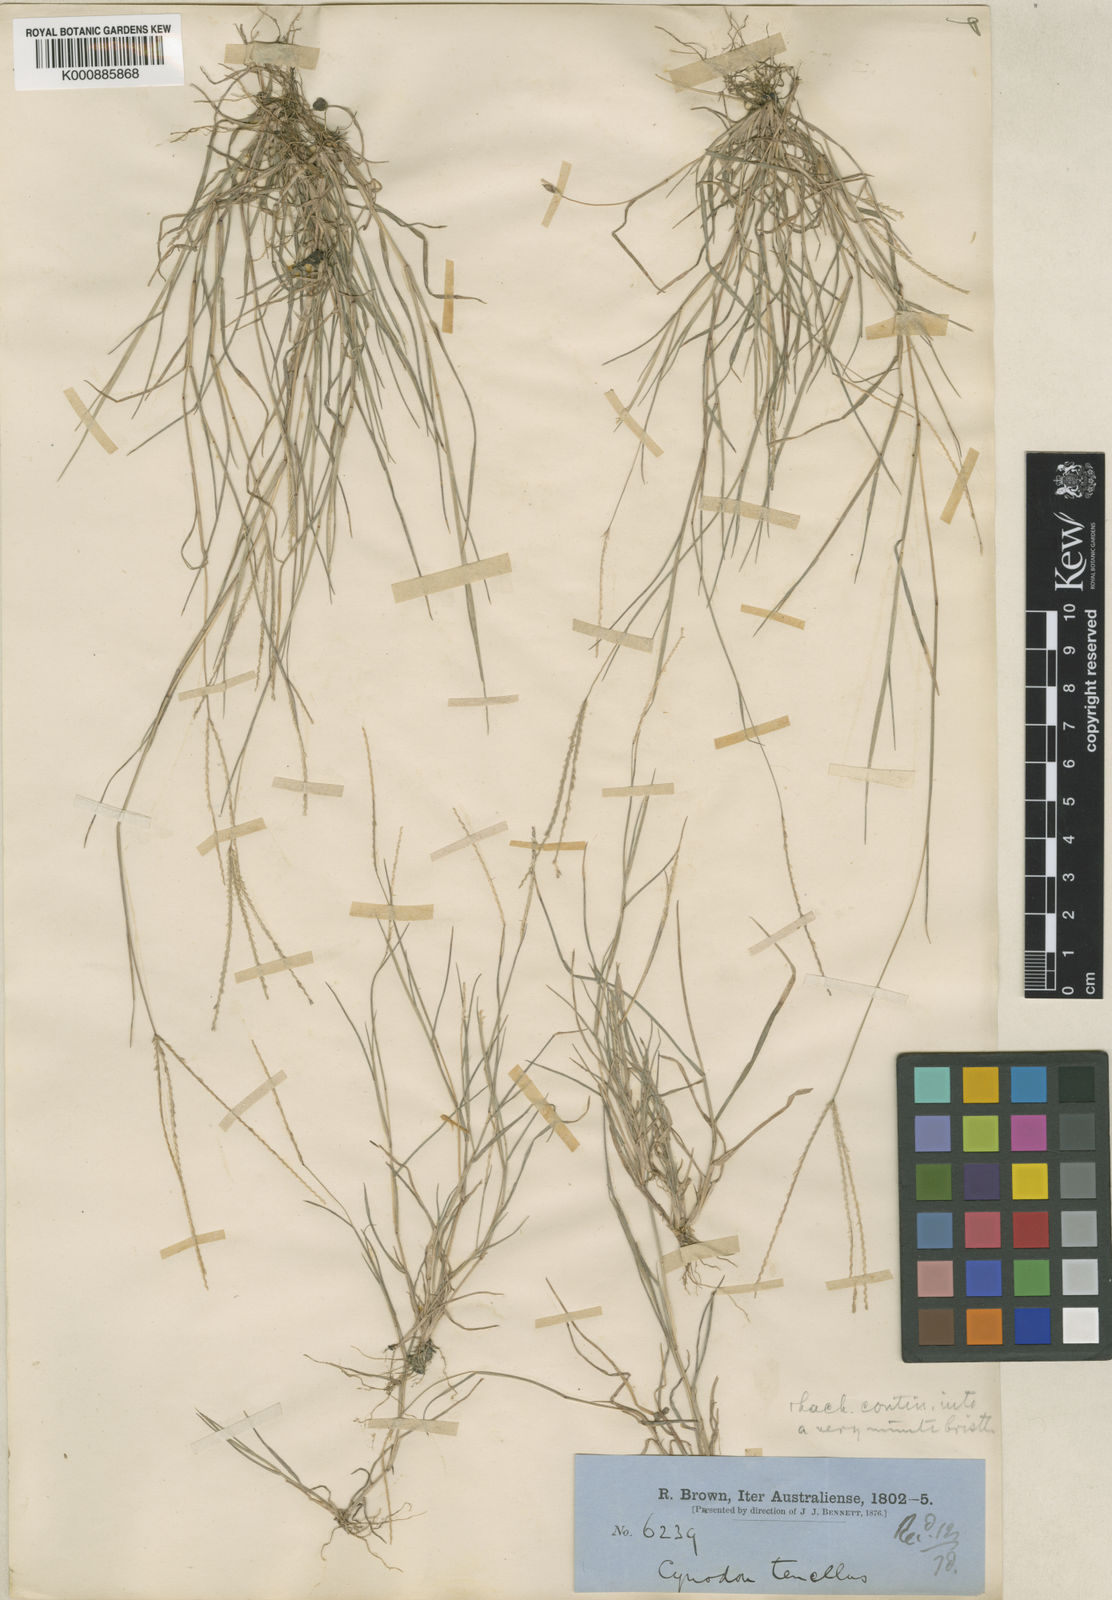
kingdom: Plantae
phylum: Tracheophyta
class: Liliopsida
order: Poales
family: Poaceae
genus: Cynodon
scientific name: Cynodon tenellus
